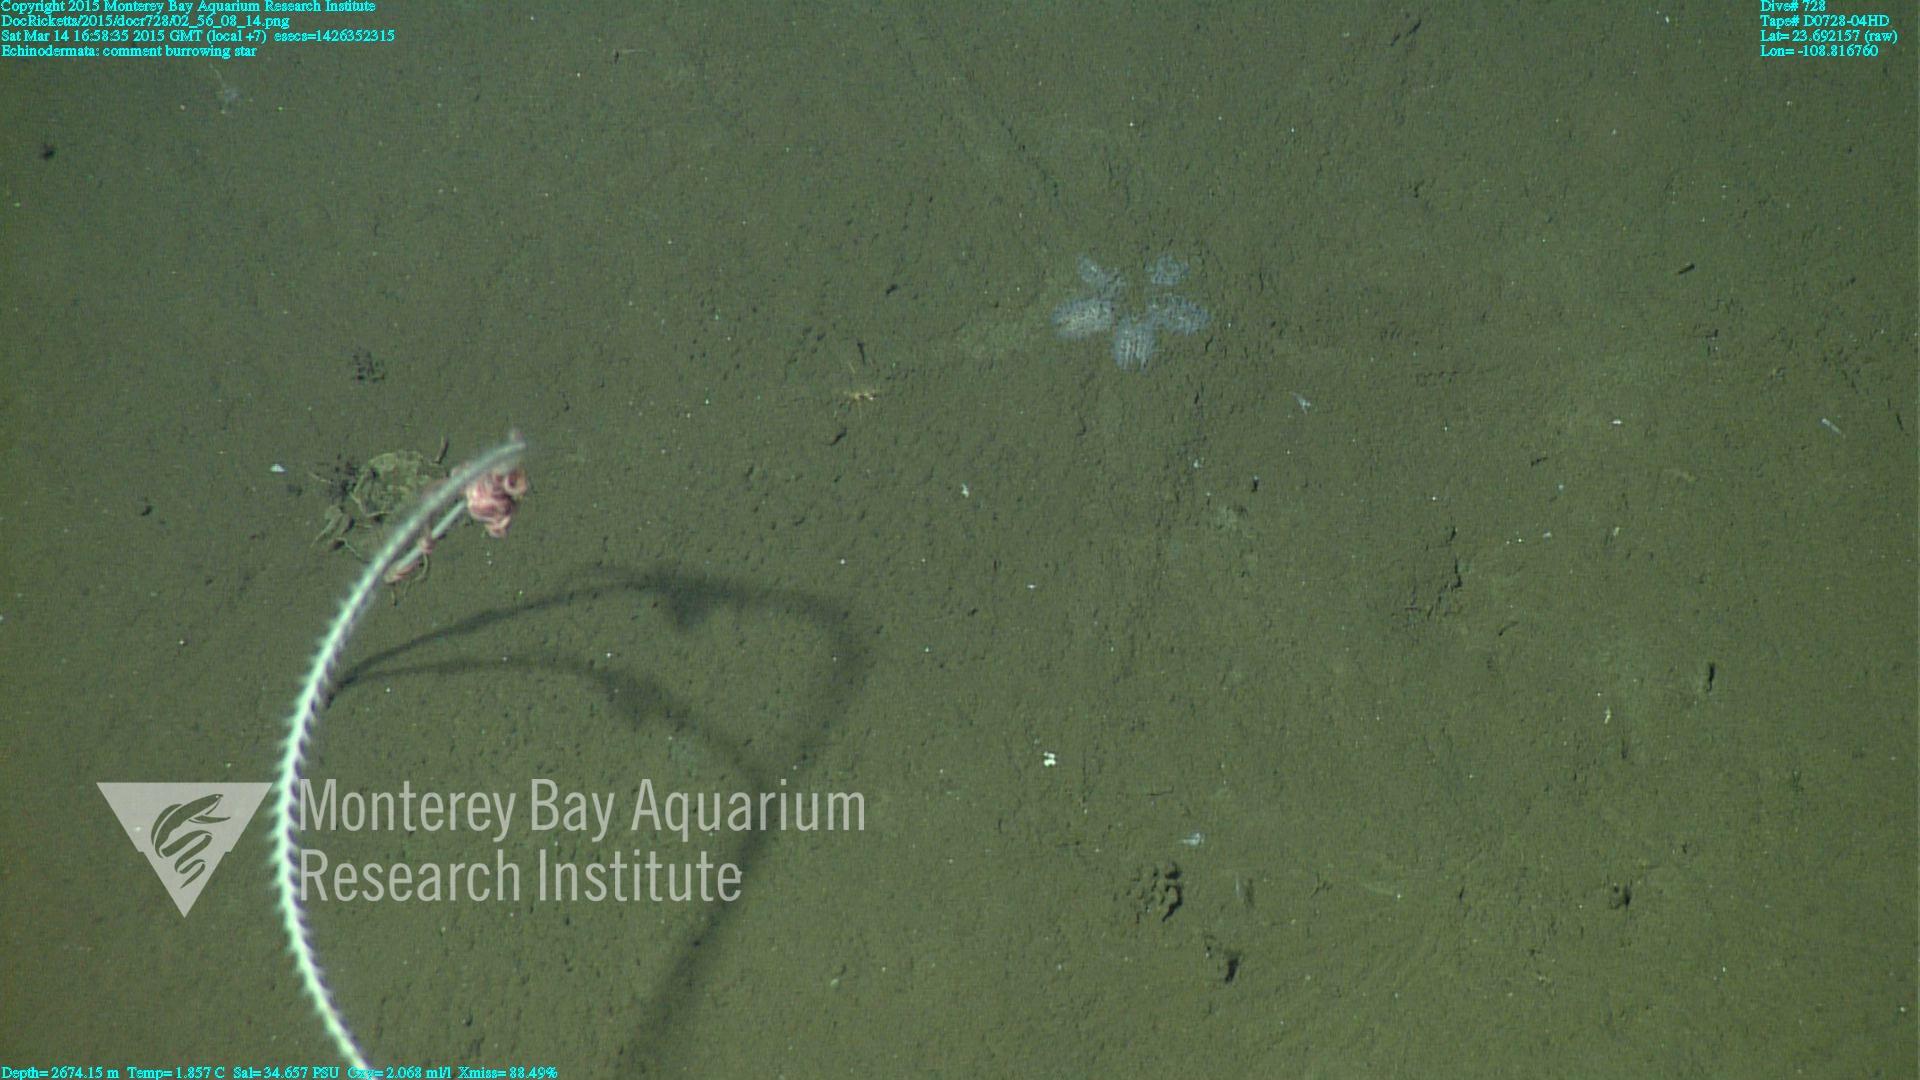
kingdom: Animalia
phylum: Cnidaria
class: Anthozoa
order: Scleralcyonacea
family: Protoptilidae
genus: Distichoptilum
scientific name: Distichoptilum
